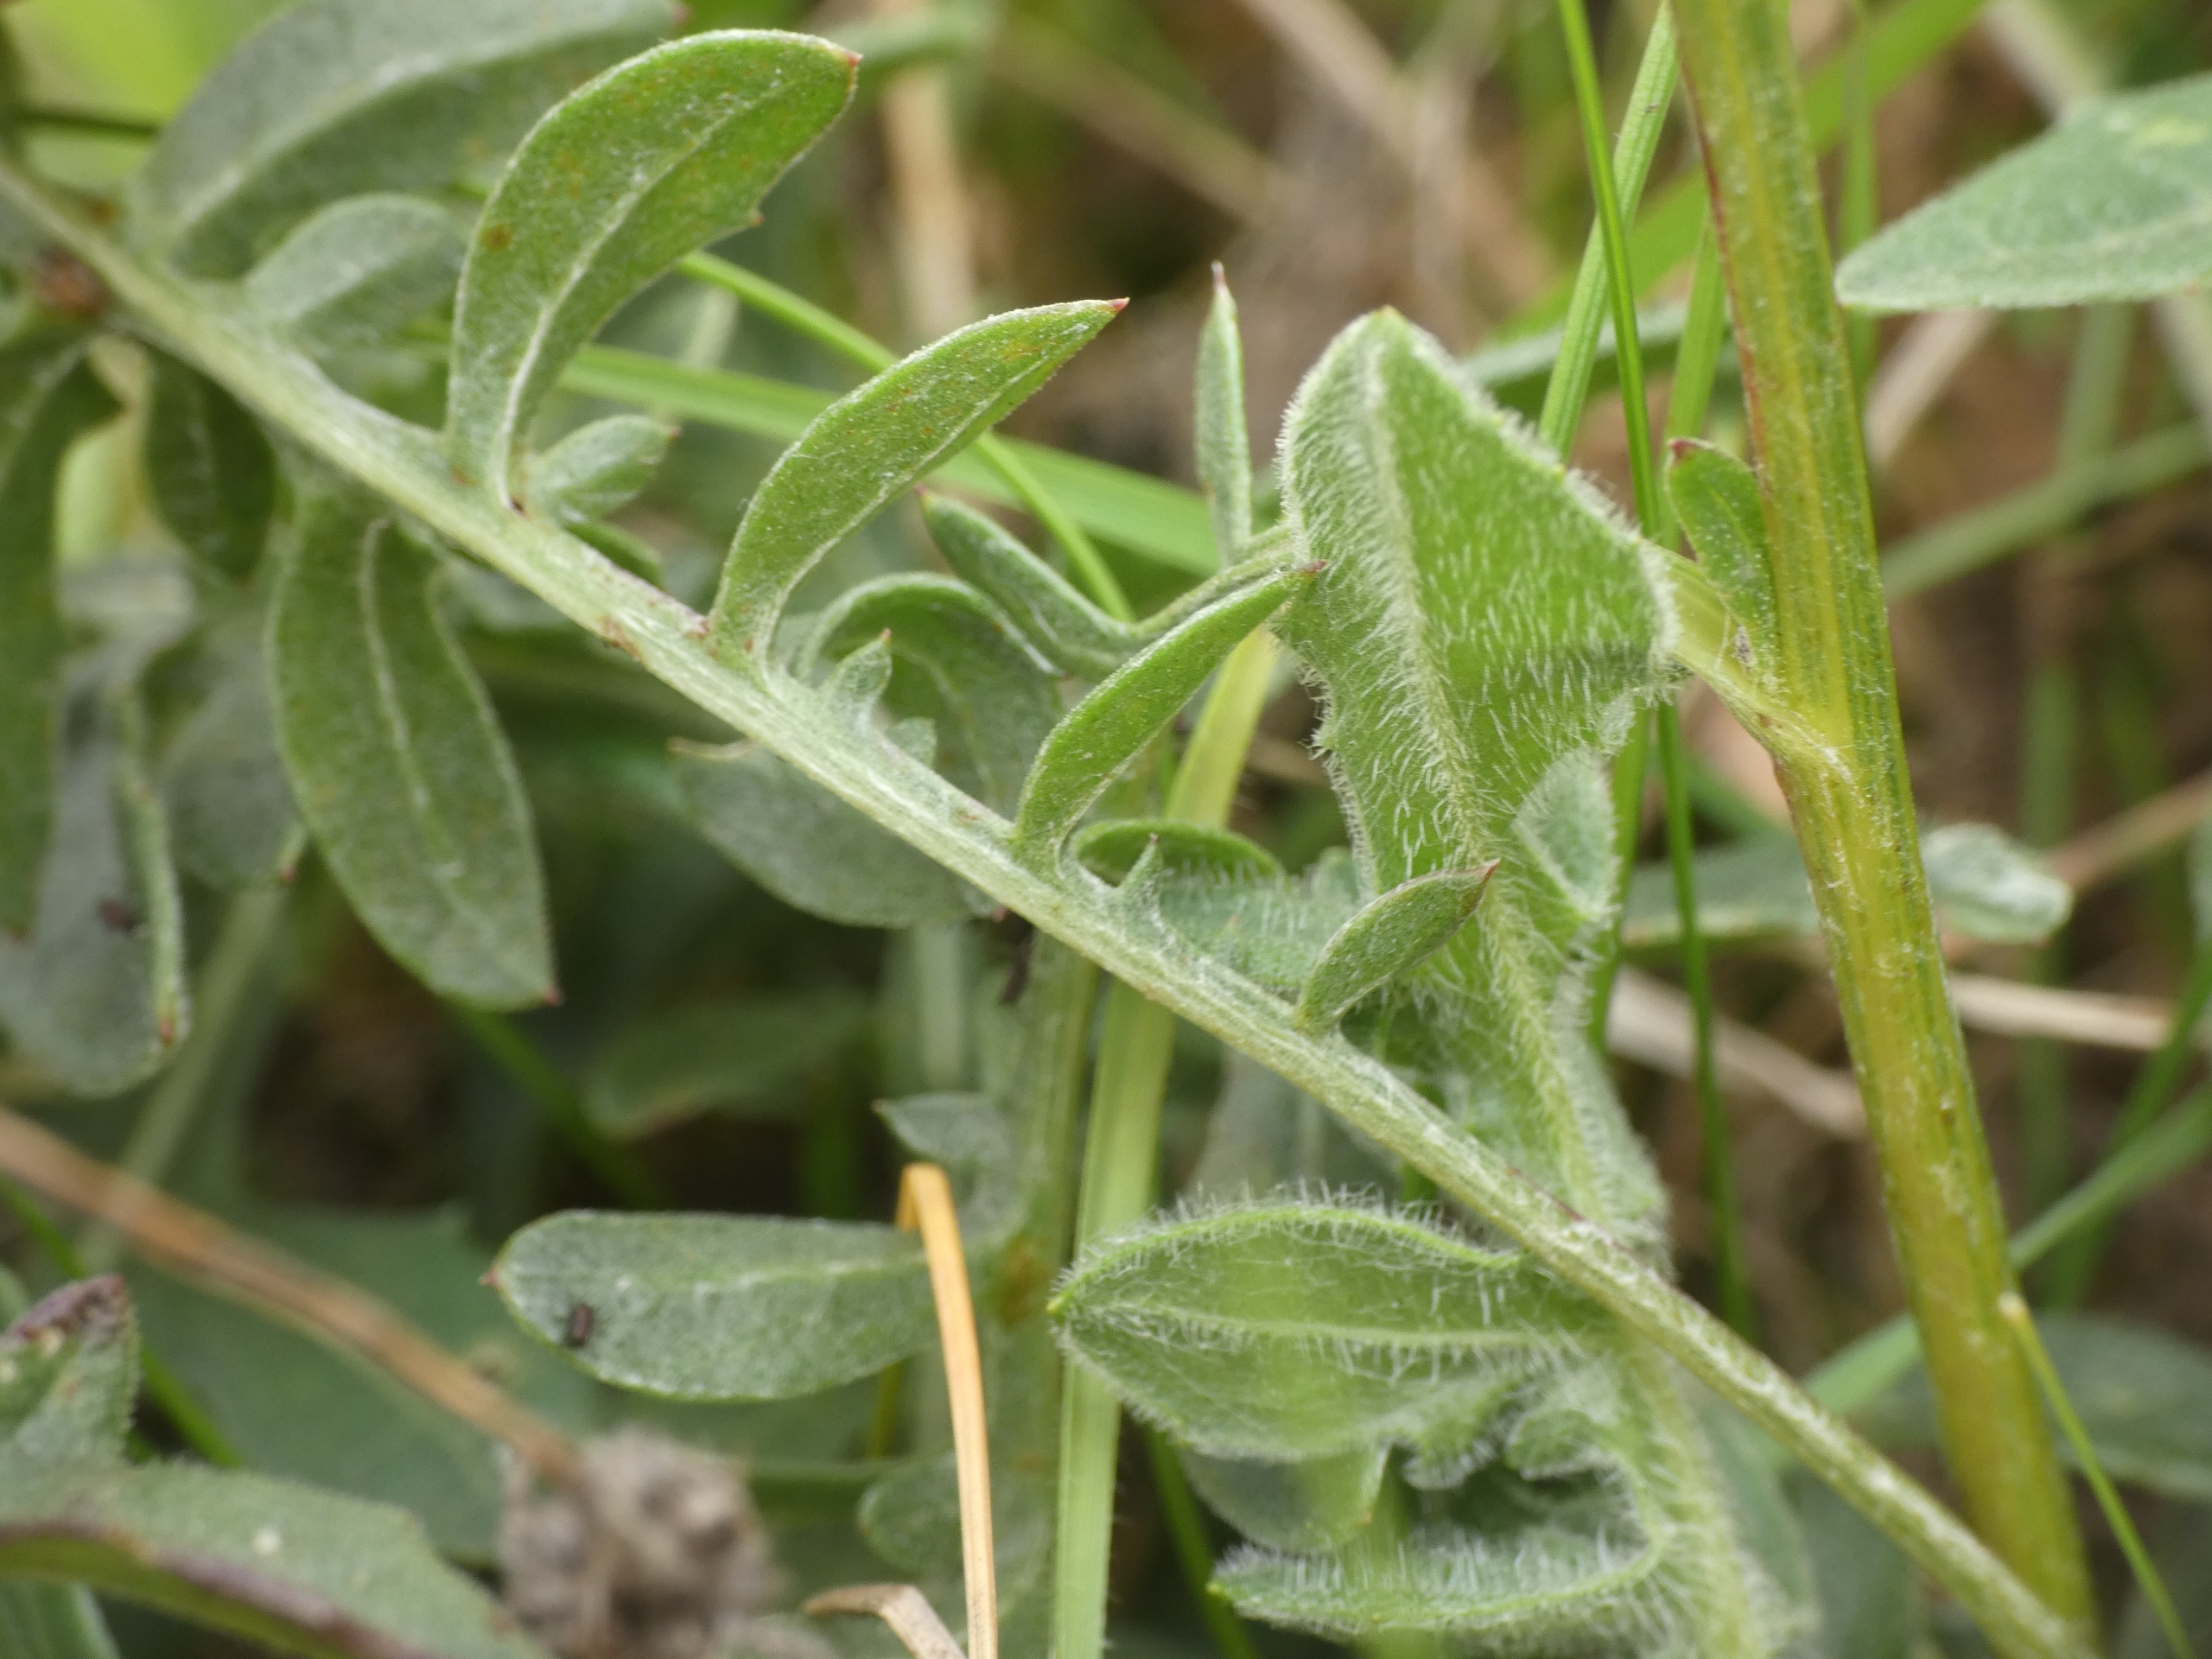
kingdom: Plantae
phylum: Tracheophyta
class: Magnoliopsida
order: Asterales
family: Asteraceae
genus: Centaurea
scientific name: Centaurea scabiosa
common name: Stor knopurt
